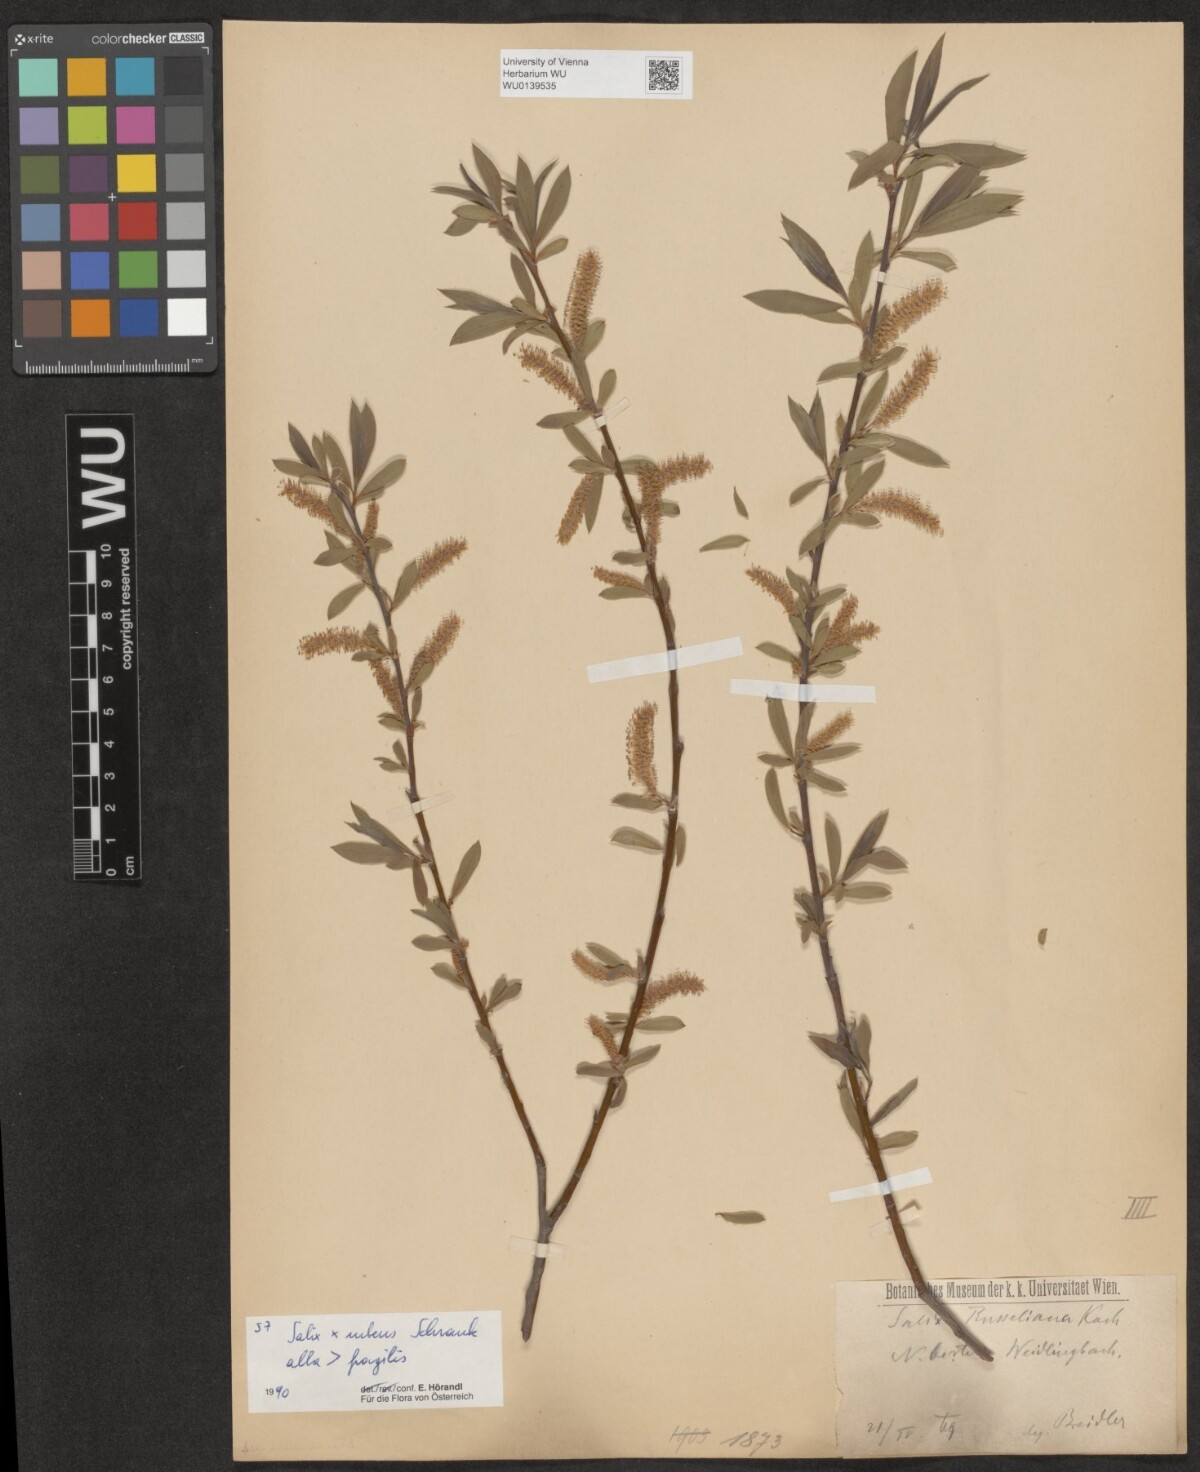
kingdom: Plantae
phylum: Tracheophyta
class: Magnoliopsida
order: Malpighiales
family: Salicaceae
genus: Salix
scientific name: Salix rubens
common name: Hybrid crack willow
